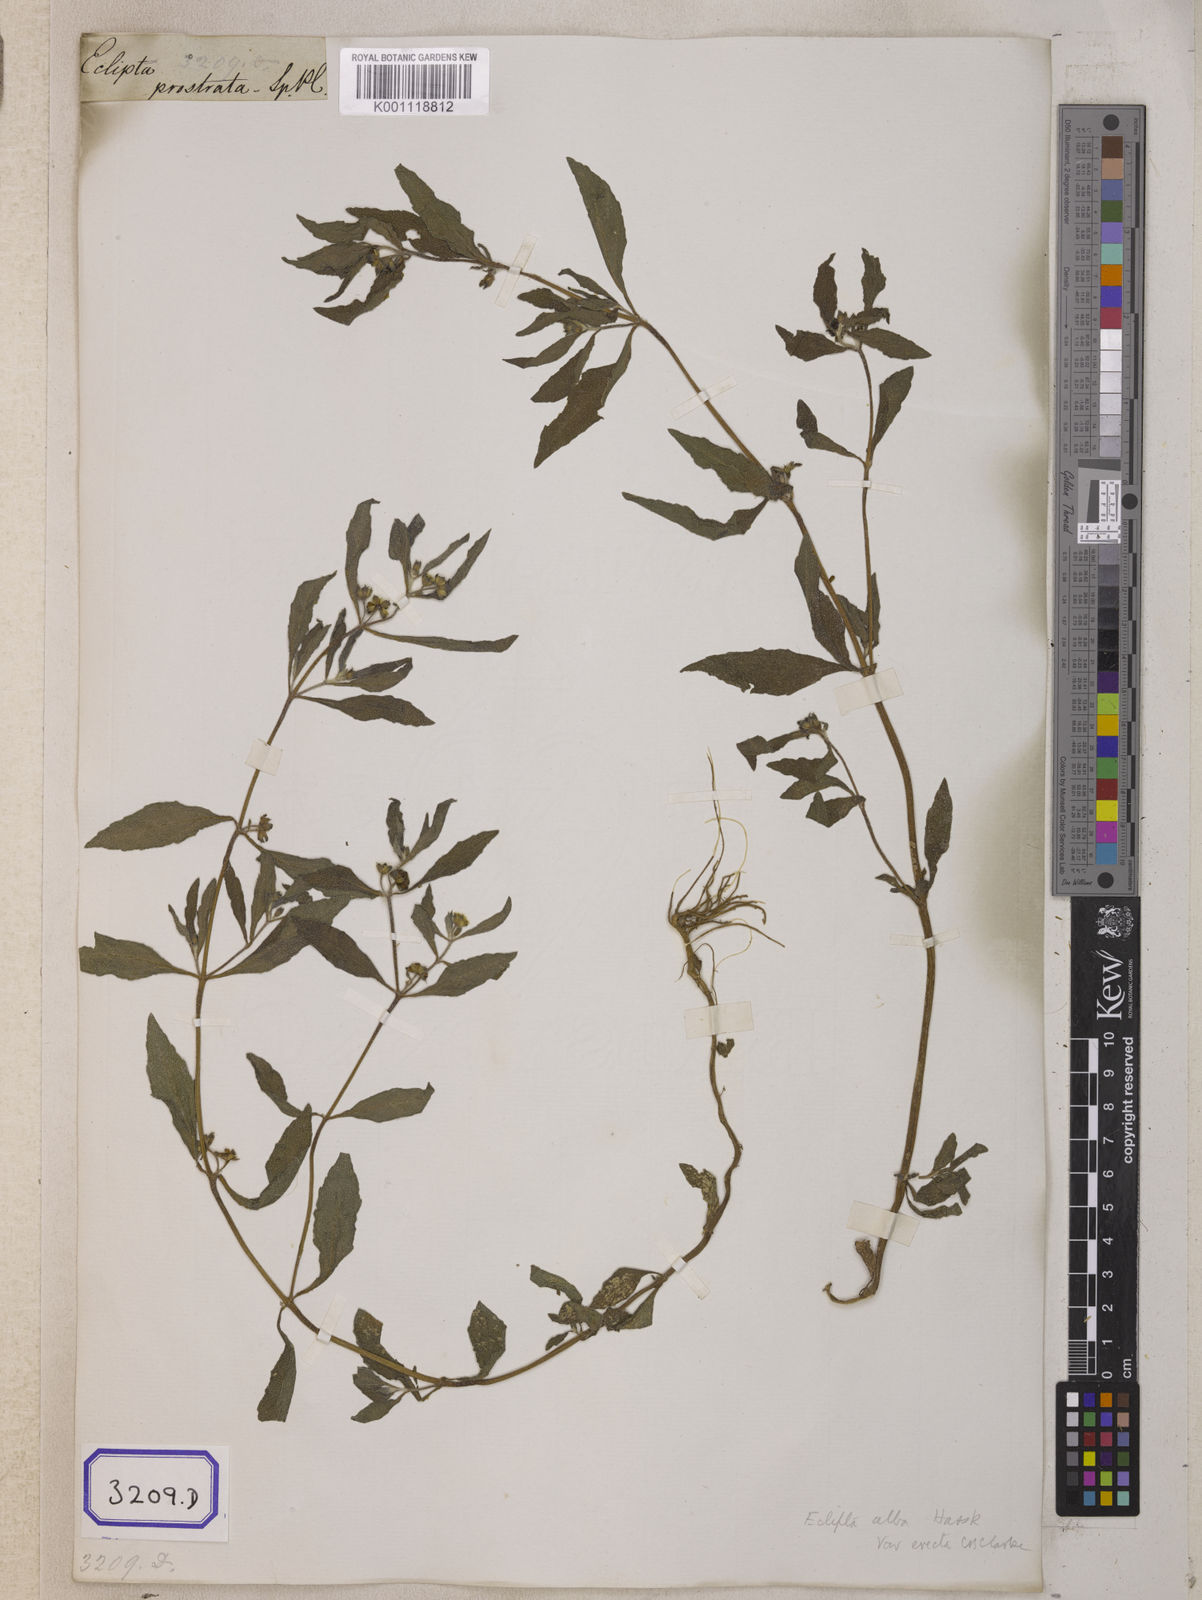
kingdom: Plantae
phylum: Tracheophyta
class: Magnoliopsida
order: Asterales
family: Asteraceae
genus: Eclipta
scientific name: Eclipta prostrata
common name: False daisy
